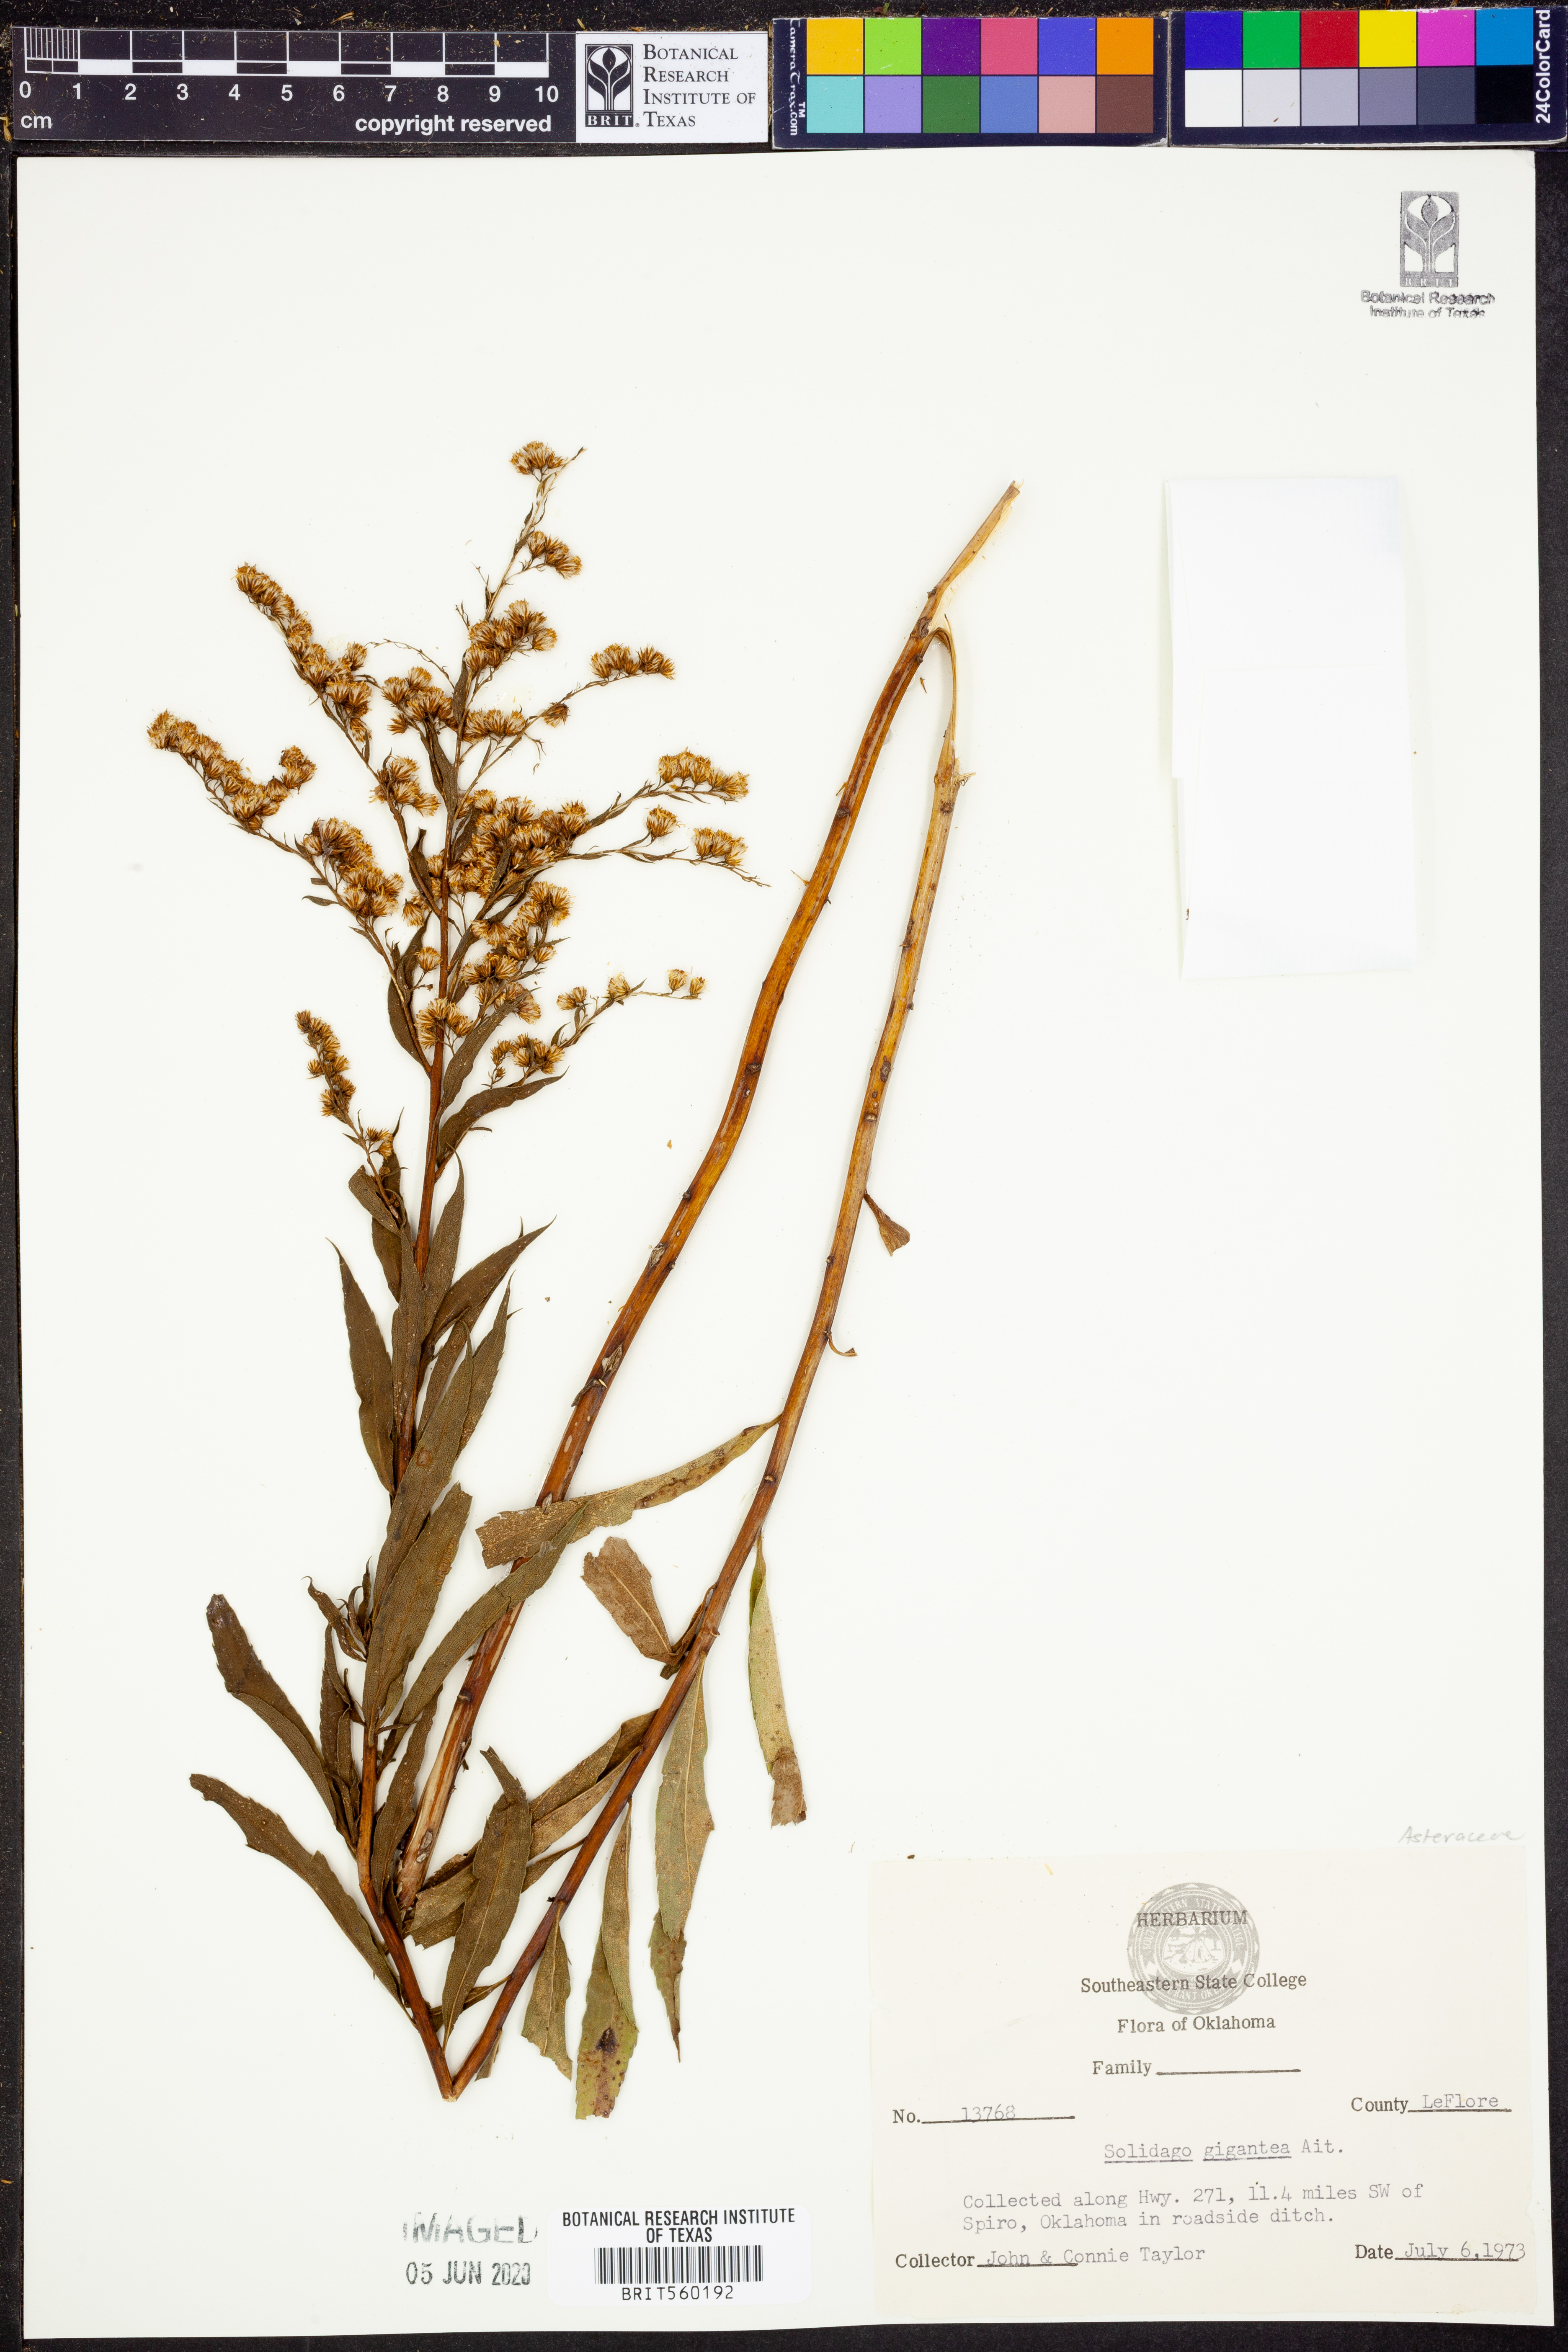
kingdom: Plantae
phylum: Tracheophyta
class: Magnoliopsida
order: Asterales
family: Asteraceae
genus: Solidago
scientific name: Solidago gigantea
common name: Giant goldenrod
